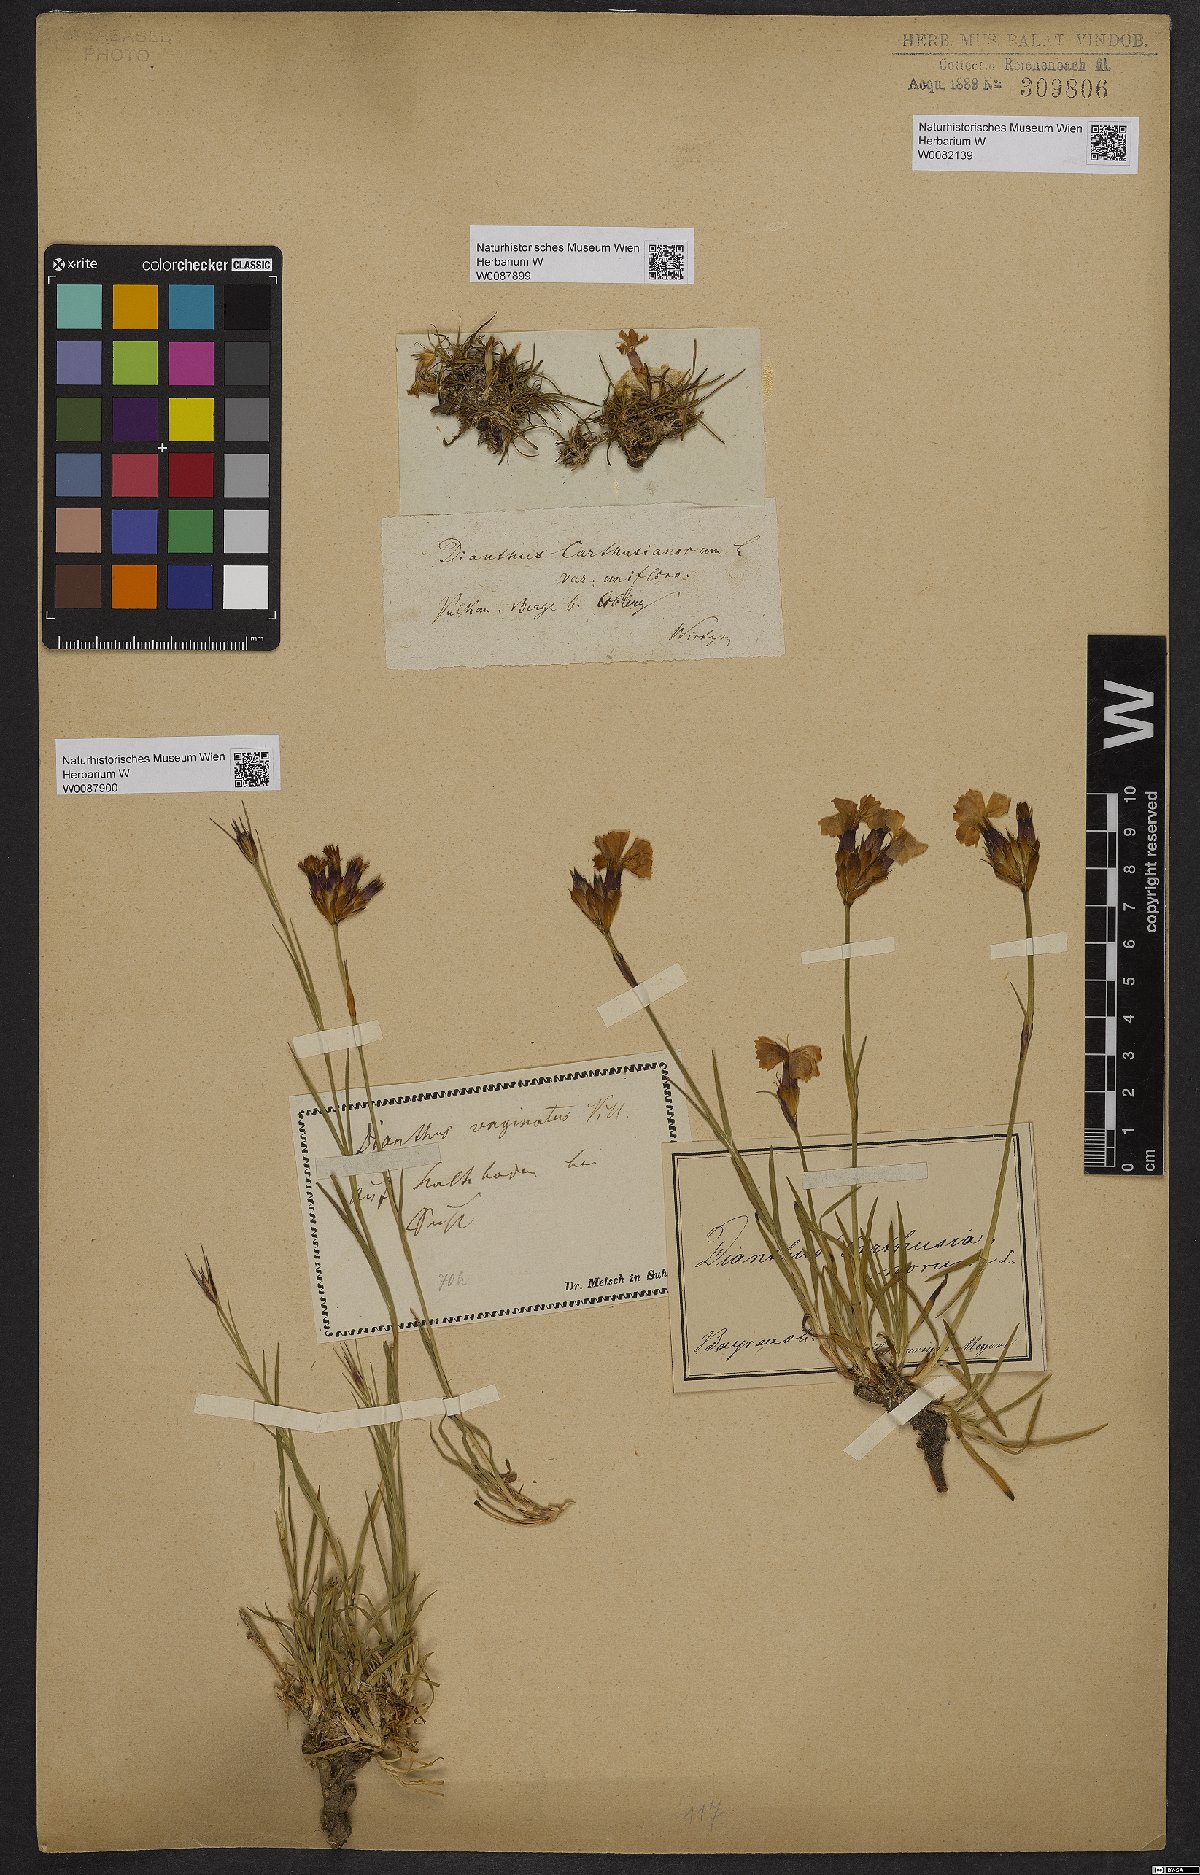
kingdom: Plantae
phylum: Tracheophyta
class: Magnoliopsida
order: Caryophyllales
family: Caryophyllaceae
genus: Dianthus
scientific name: Dianthus carthusianorum
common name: Carthusian pink
